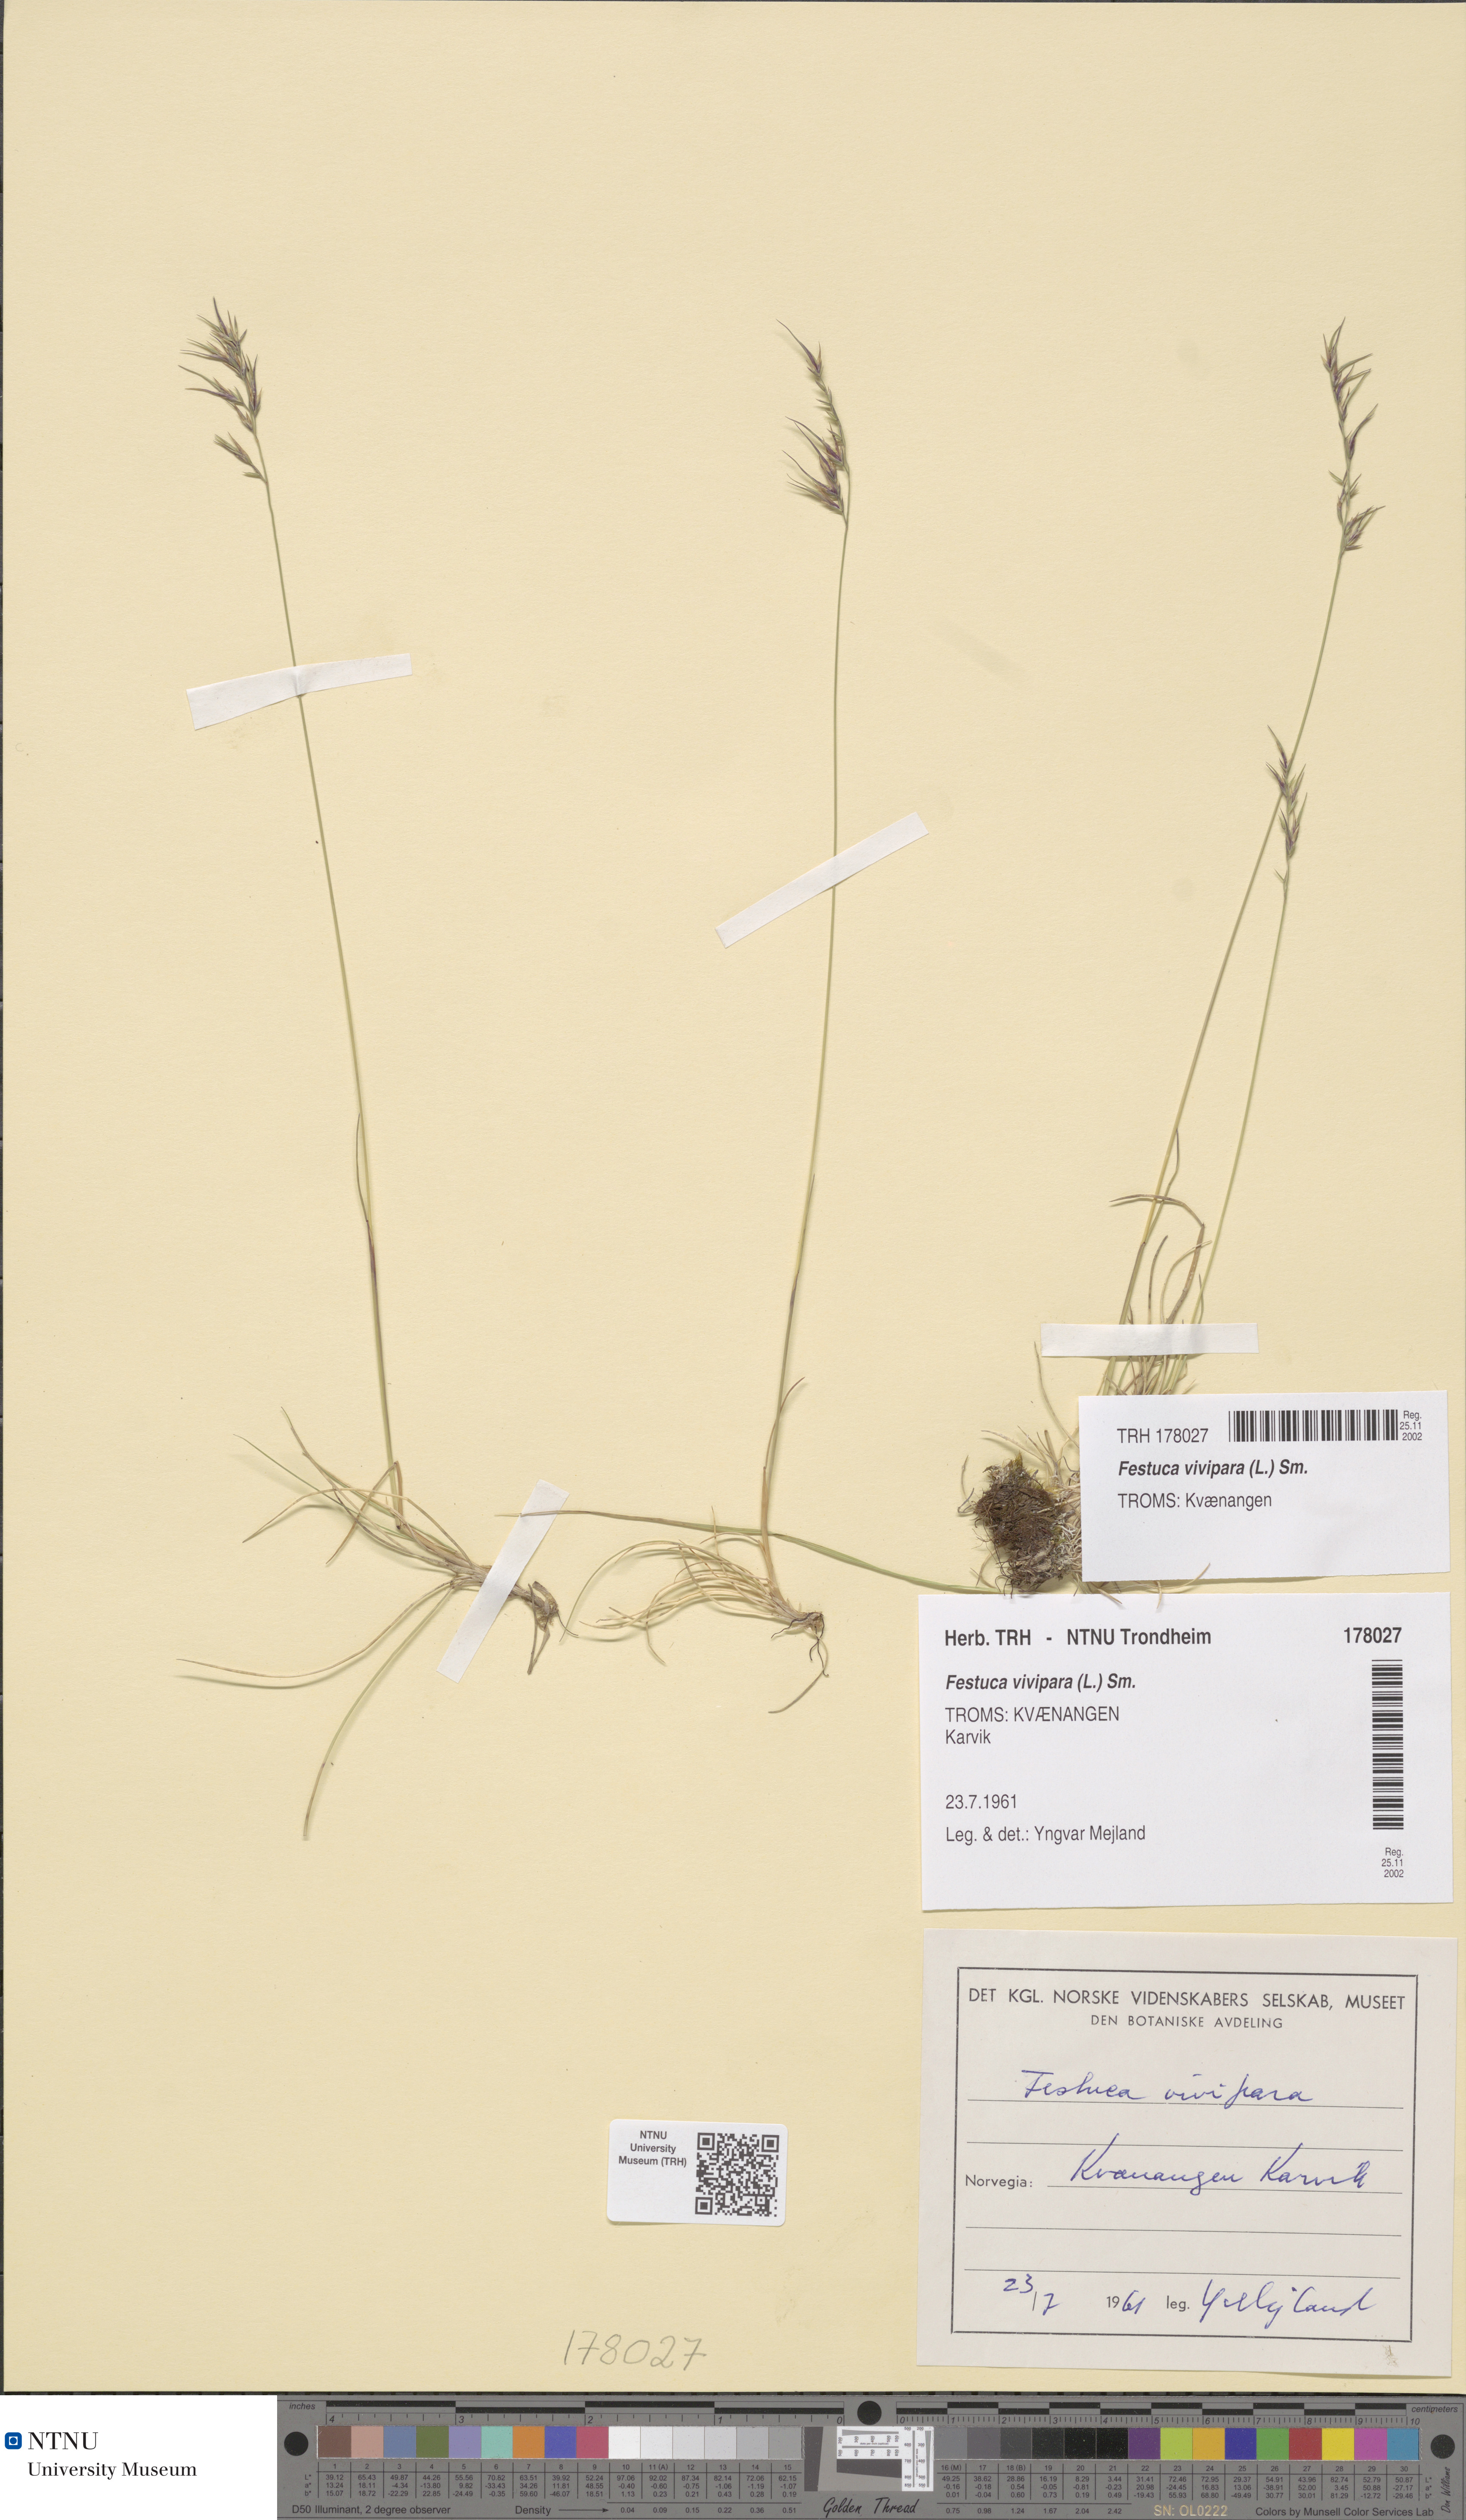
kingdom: Plantae
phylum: Tracheophyta
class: Liliopsida
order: Poales
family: Poaceae
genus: Festuca
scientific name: Festuca vivipara
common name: Viviparous sheep's-fescue
